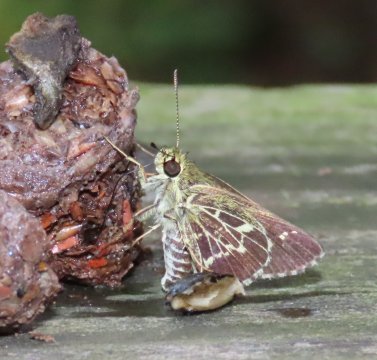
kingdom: Animalia
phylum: Arthropoda
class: Insecta
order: Lepidoptera
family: Hesperiidae
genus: Mastor
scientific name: Mastor aesculapius
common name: Lace-winged Roadside-Skipper
